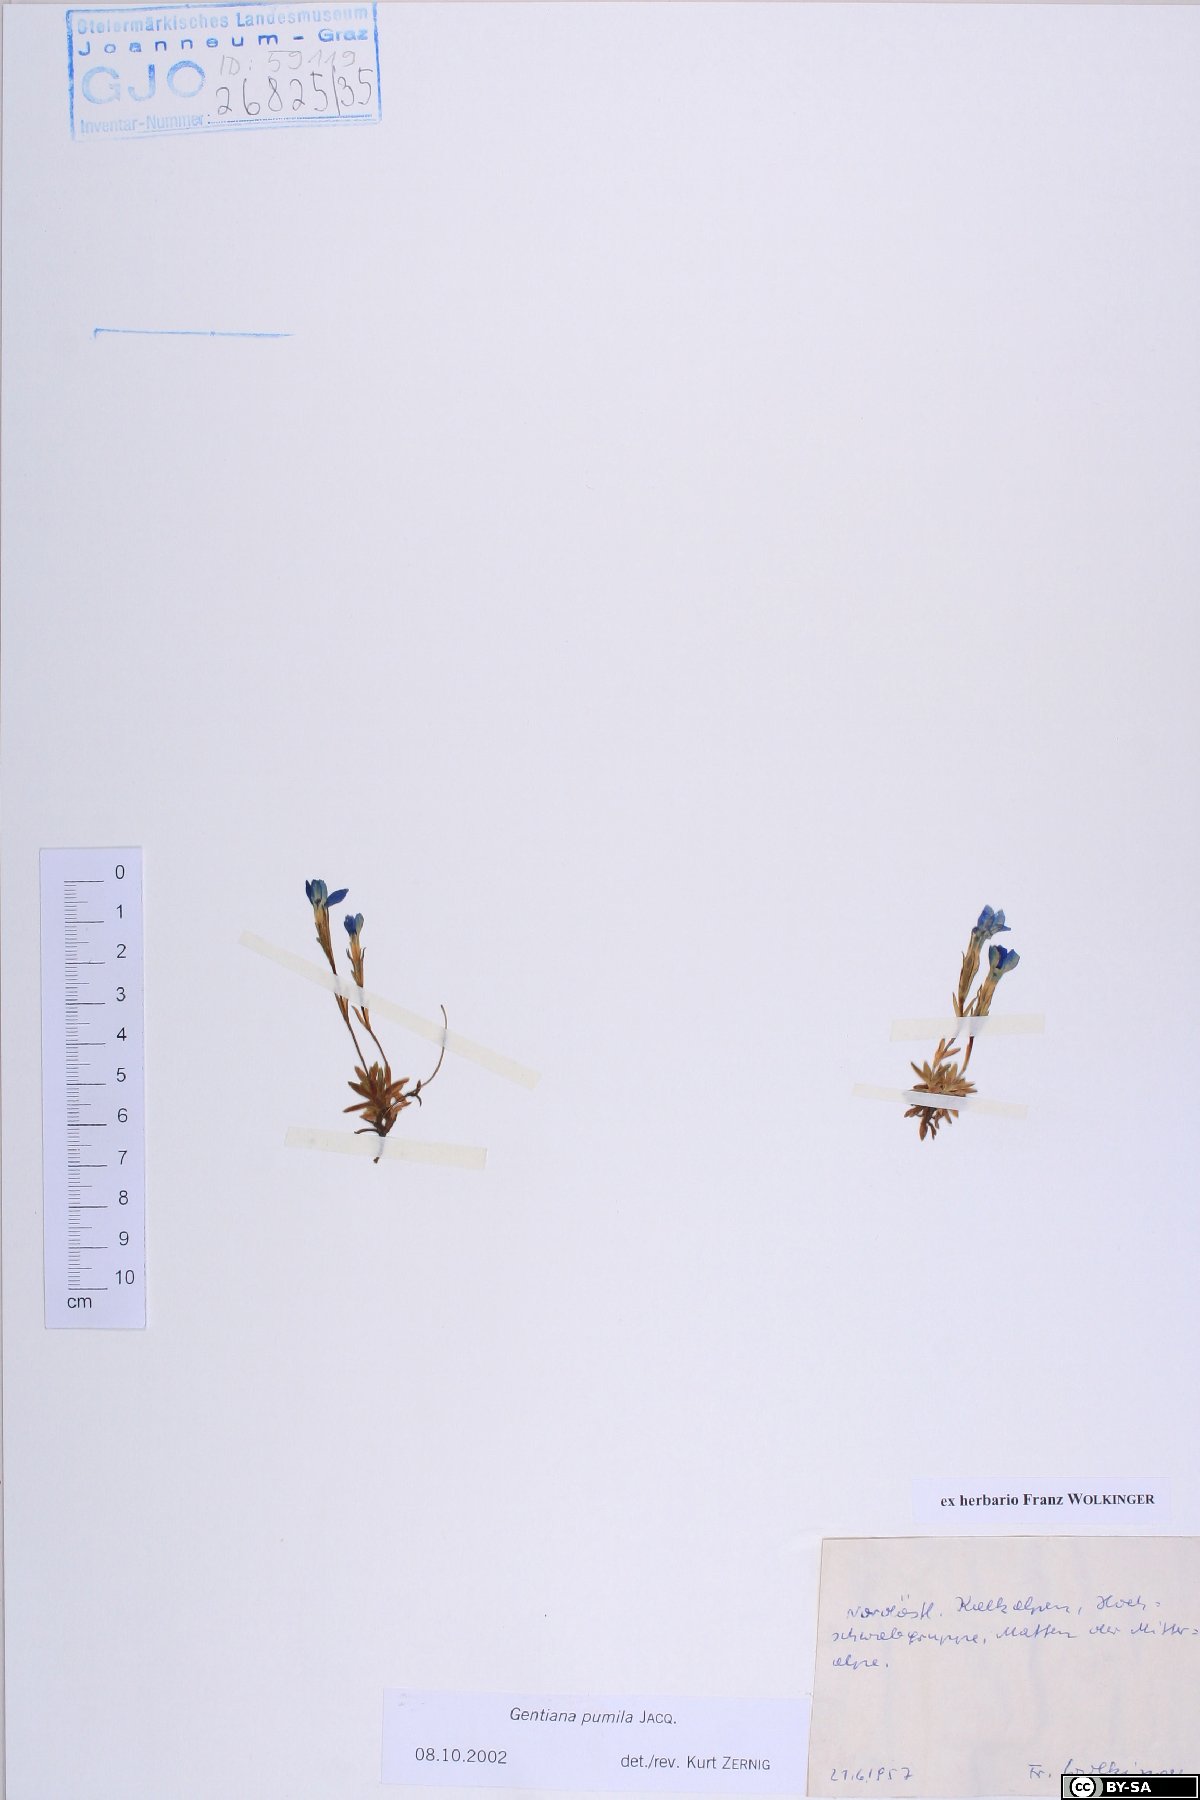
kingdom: Plantae
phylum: Tracheophyta
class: Magnoliopsida
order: Gentianales
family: Gentianaceae
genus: Gentiana
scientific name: Gentiana pumila
